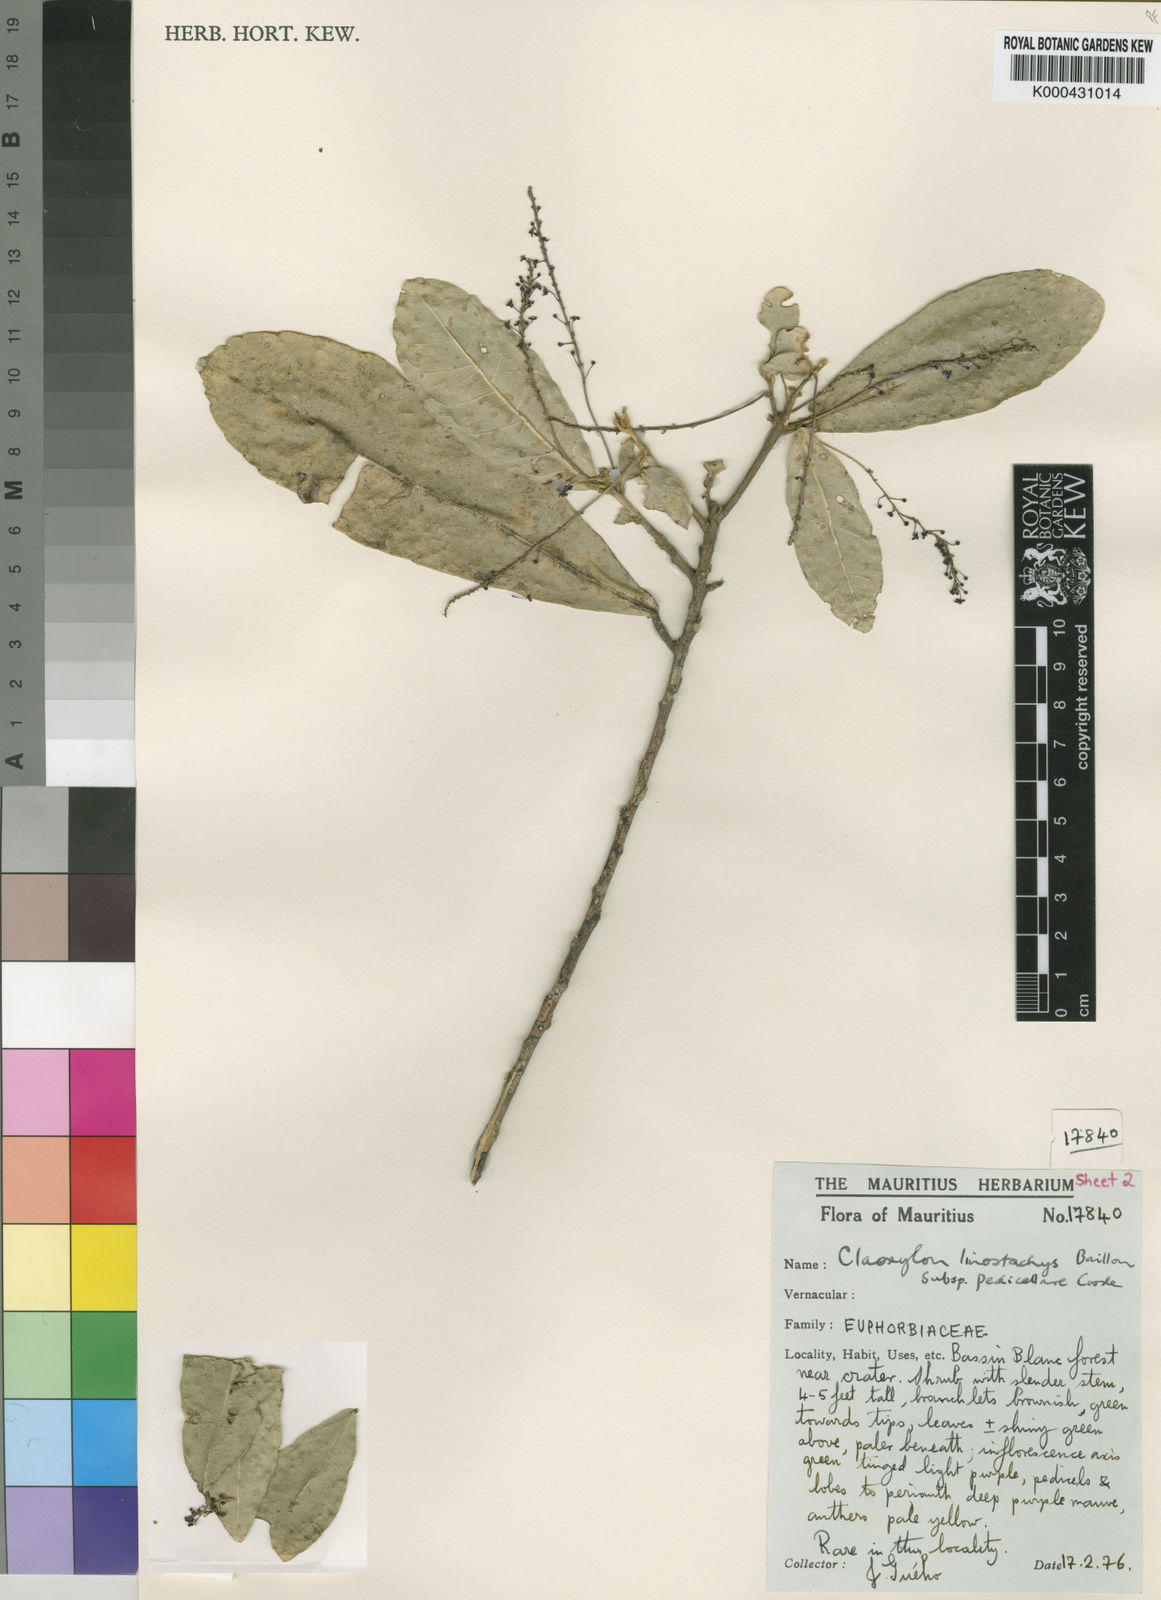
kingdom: Plantae
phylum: Tracheophyta
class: Magnoliopsida
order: Malpighiales
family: Euphorbiaceae
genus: Claoxylon
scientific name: Claoxylon linostachys
